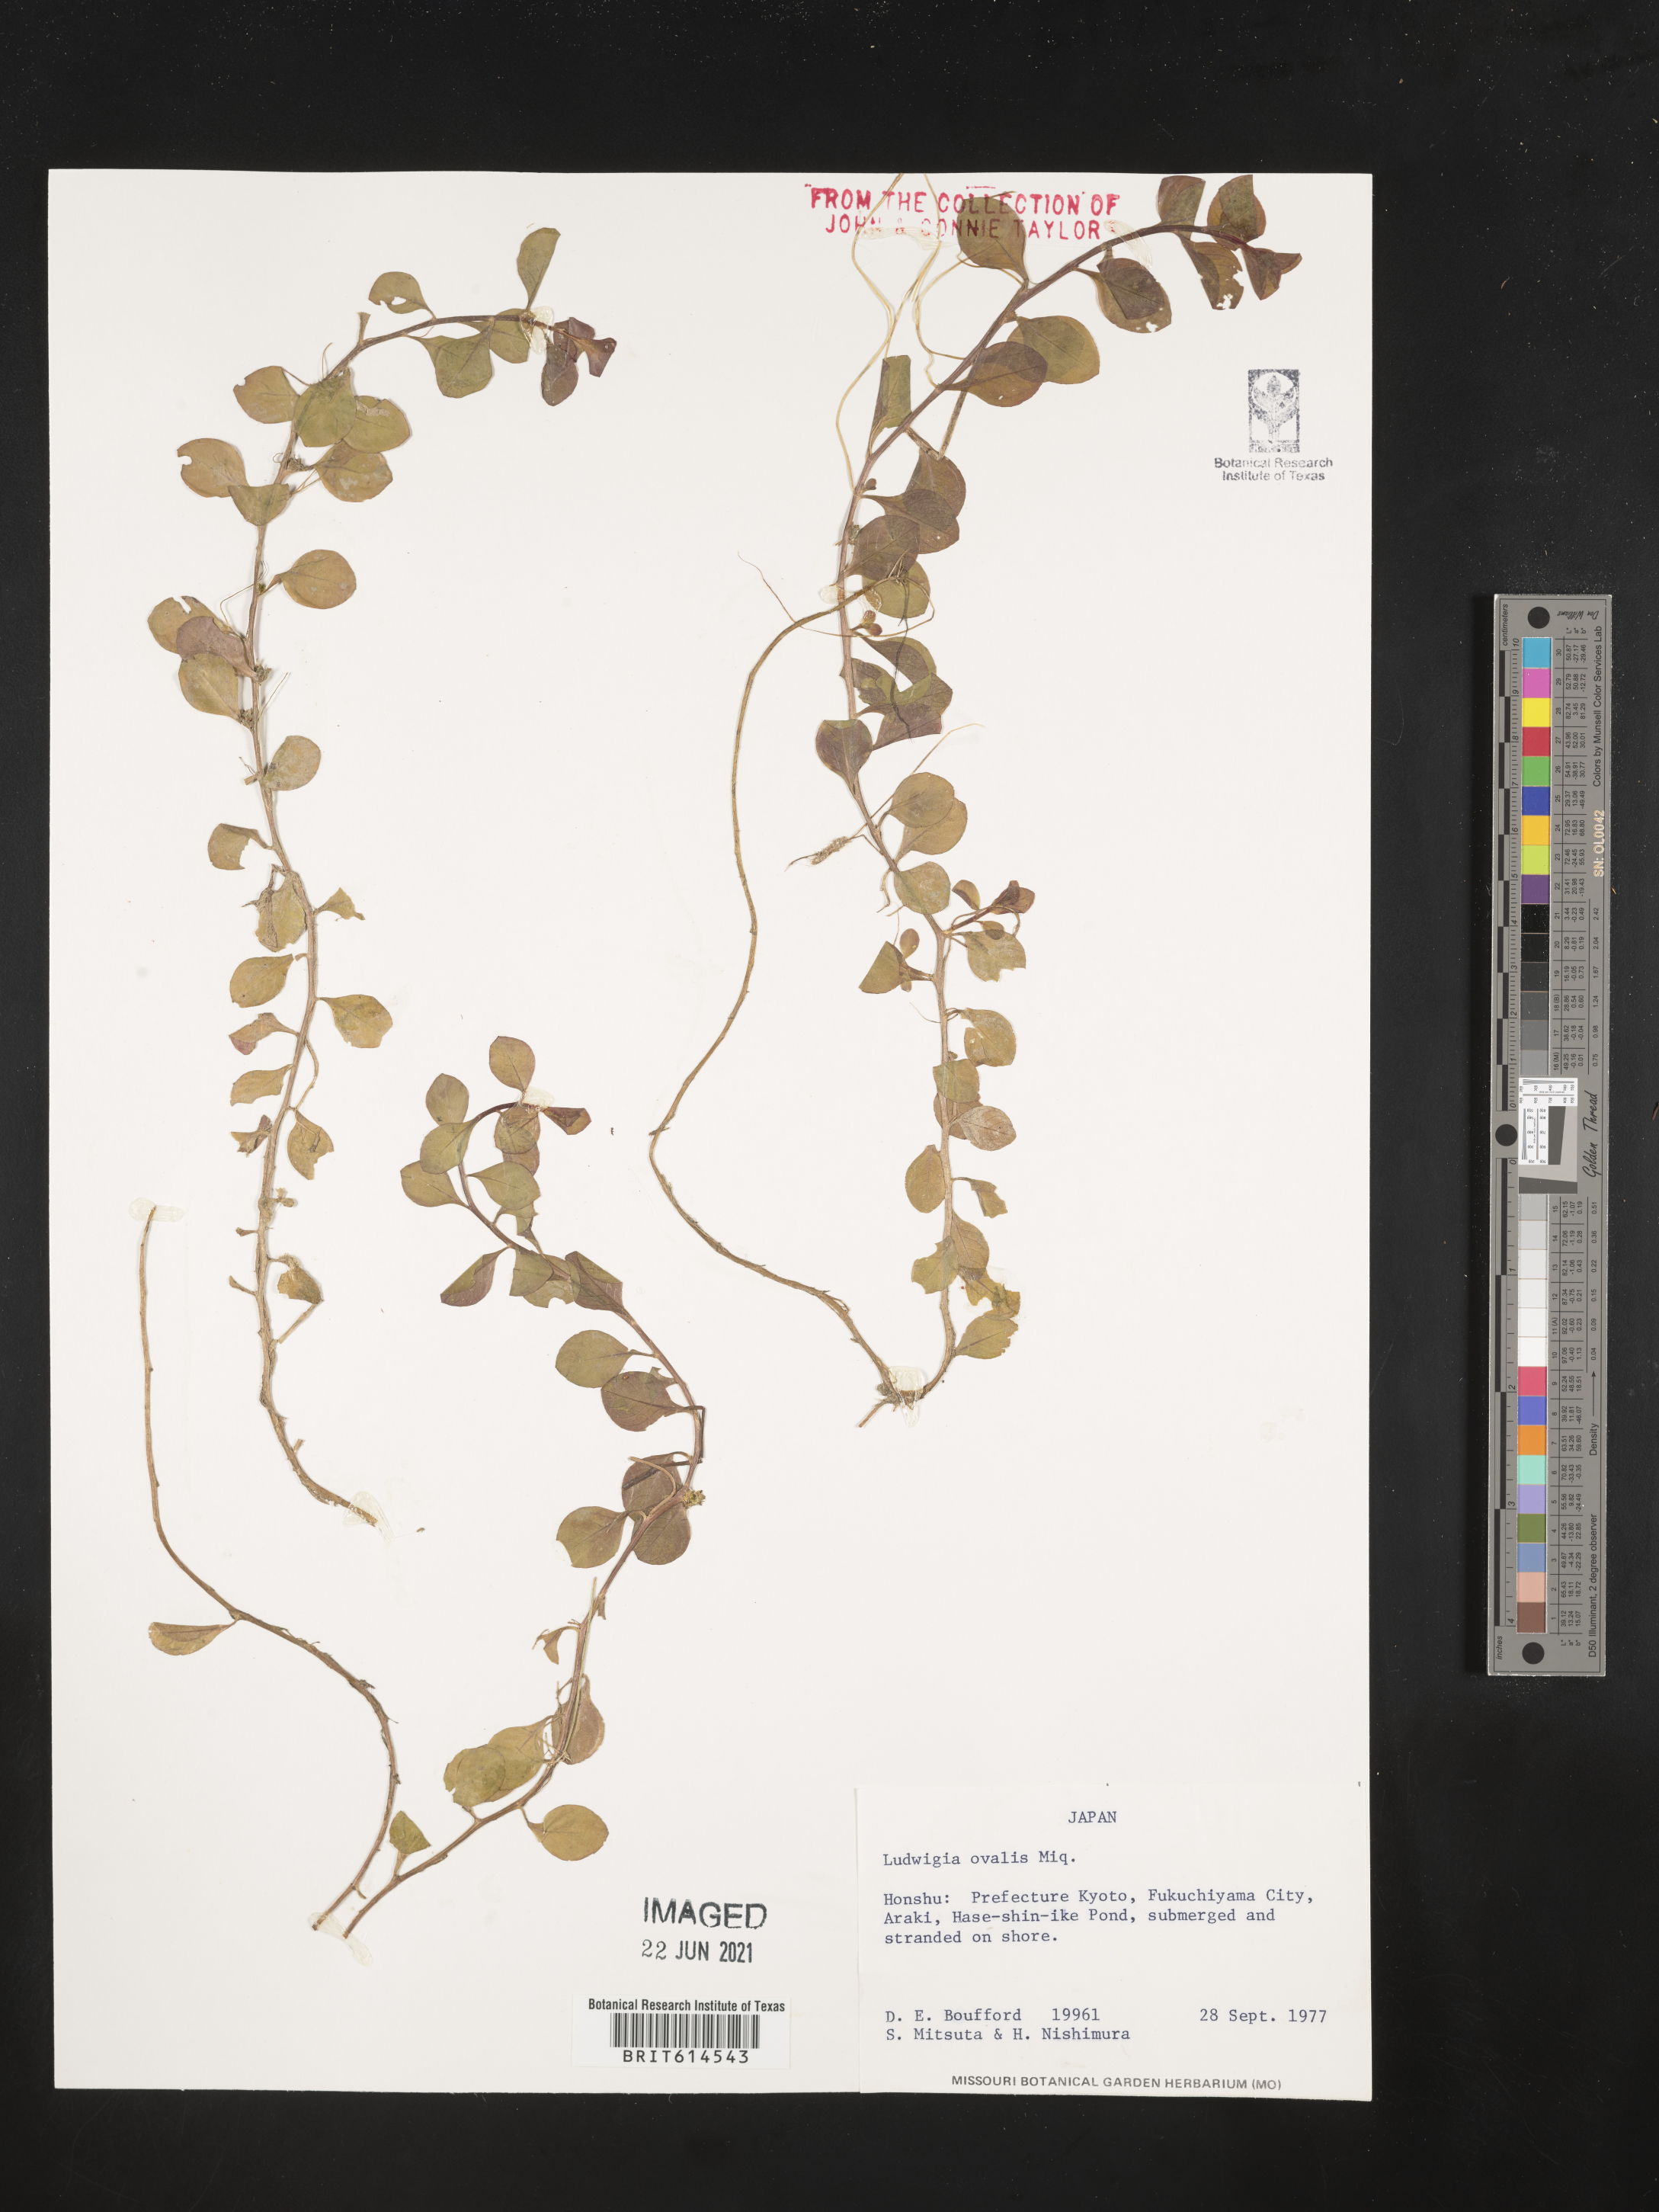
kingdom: Plantae
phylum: Tracheophyta
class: Magnoliopsida
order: Myrtales
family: Onagraceae
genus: Ludwigia
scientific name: Ludwigia ovalis
